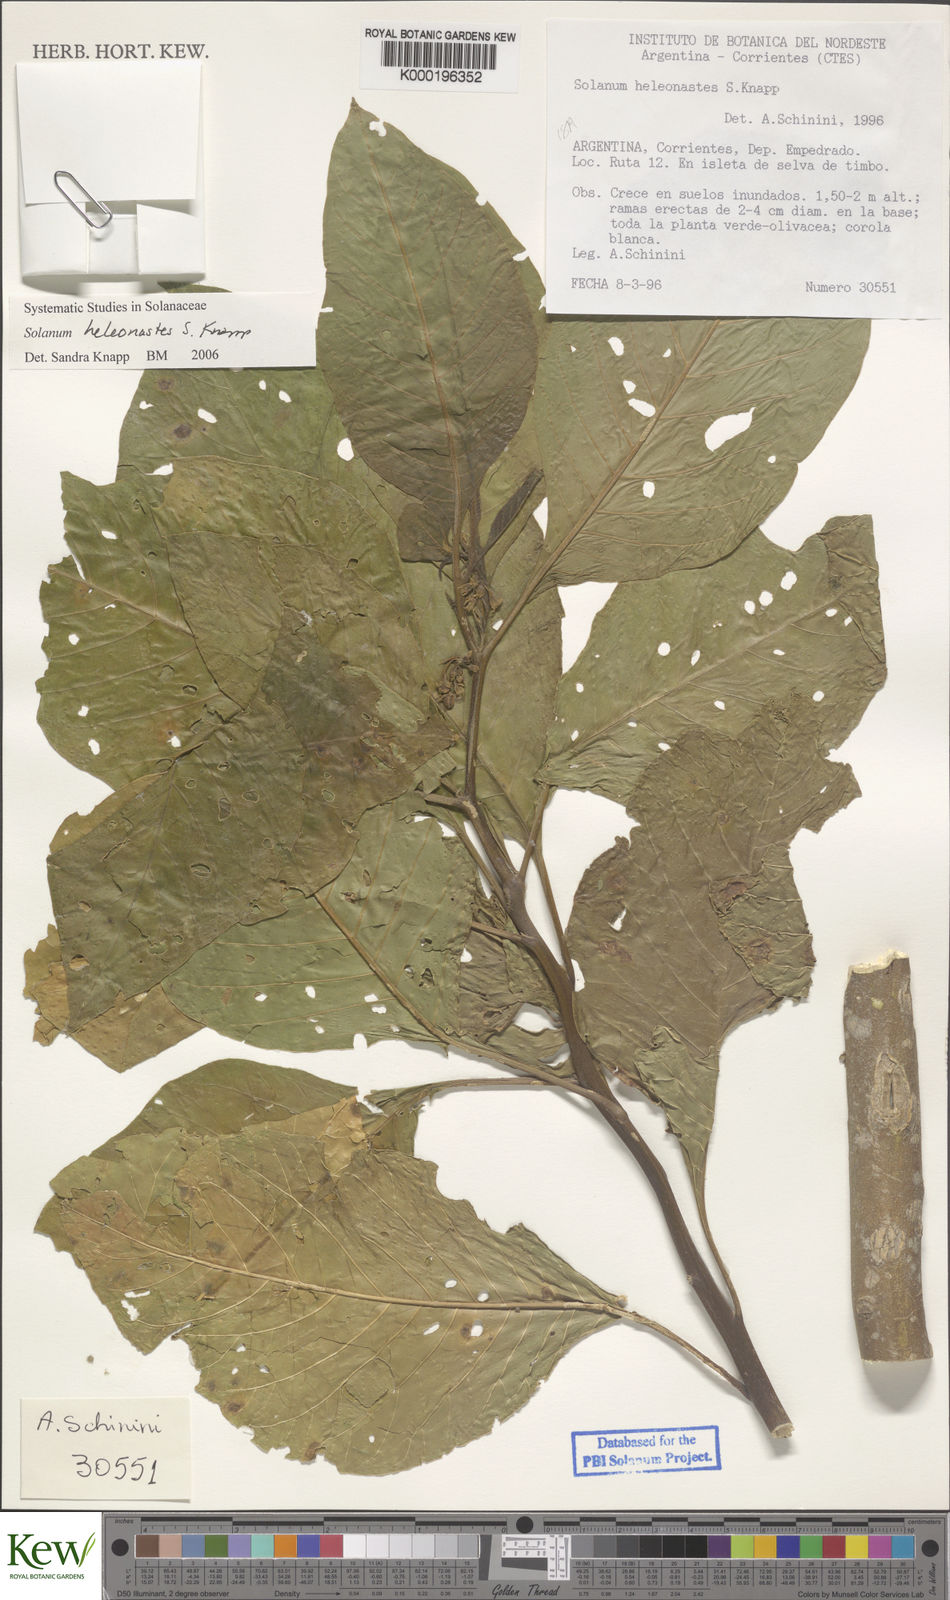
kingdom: Plantae
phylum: Tracheophyta
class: Magnoliopsida
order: Solanales
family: Solanaceae
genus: Solanum
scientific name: Solanum heleonastes
